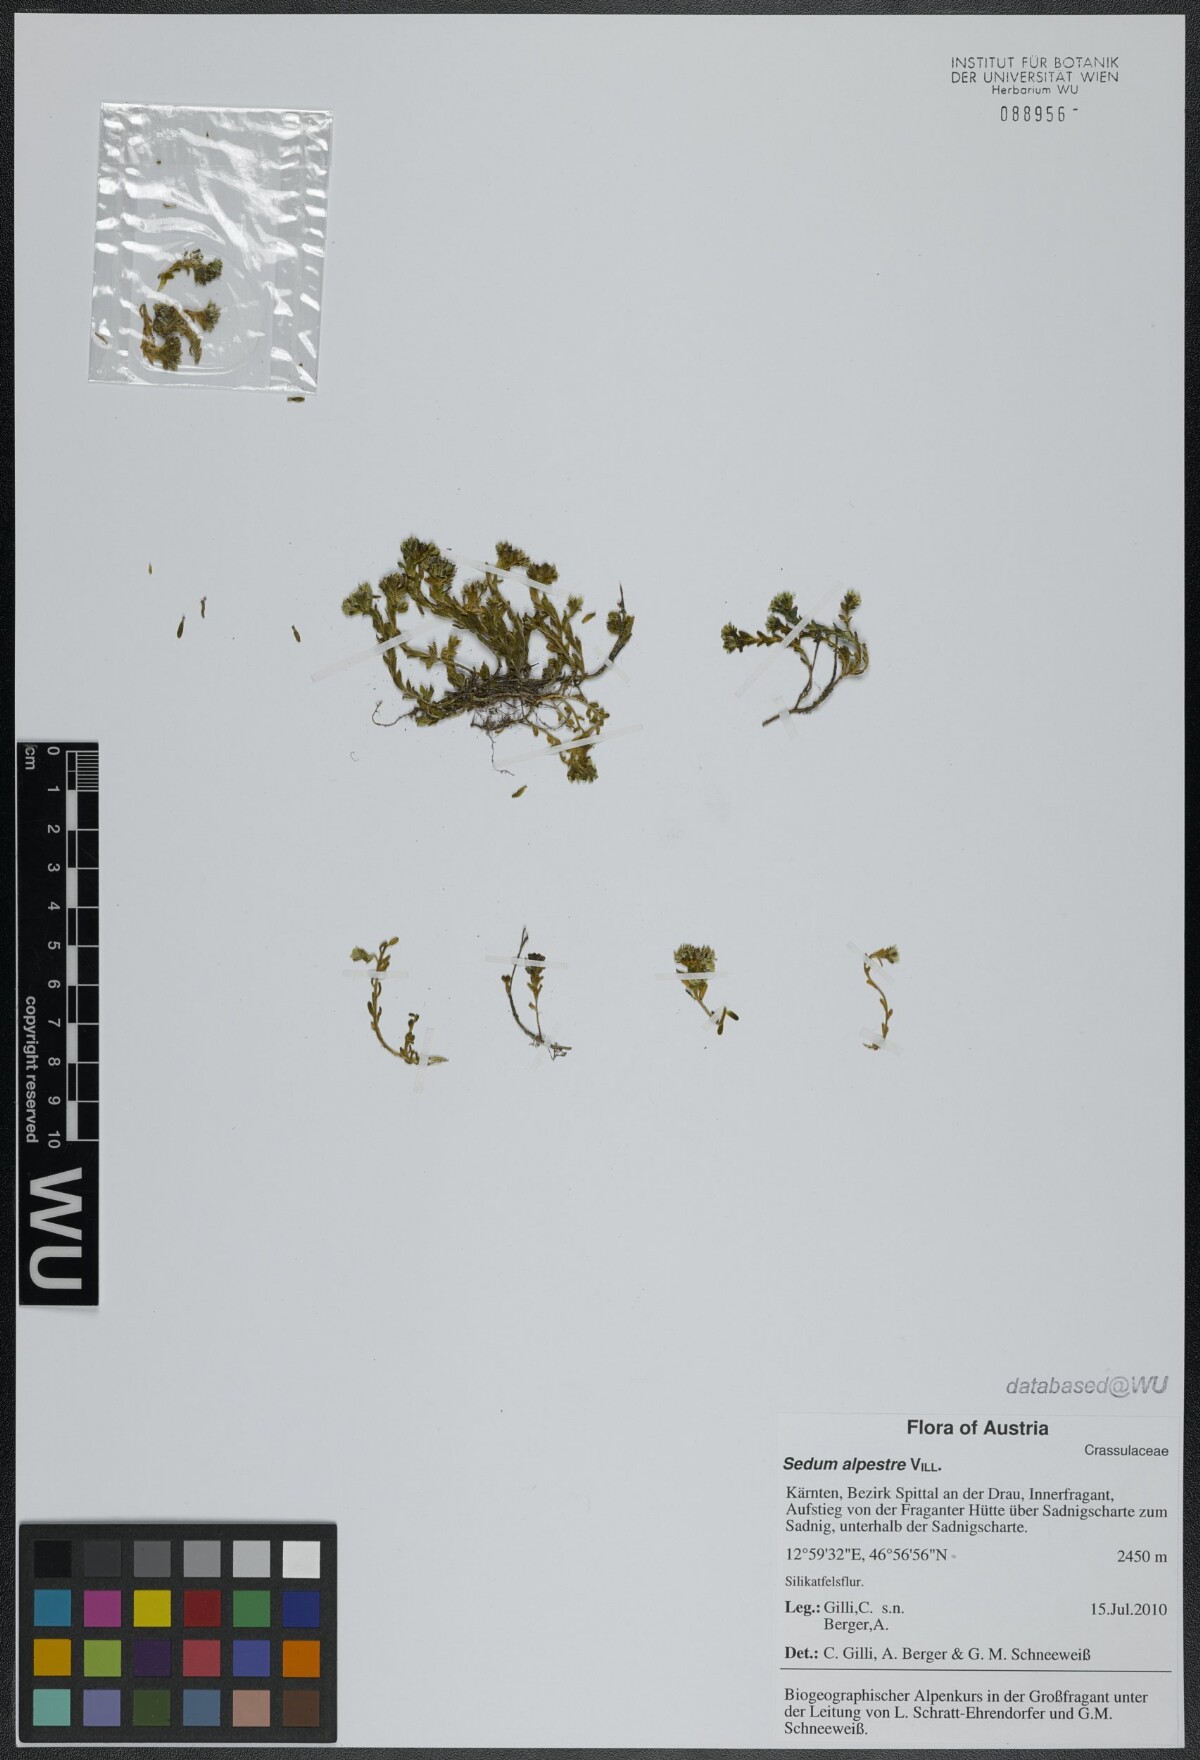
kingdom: Plantae
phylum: Tracheophyta
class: Magnoliopsida
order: Saxifragales
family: Crassulaceae
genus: Sedum
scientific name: Sedum alpestre
